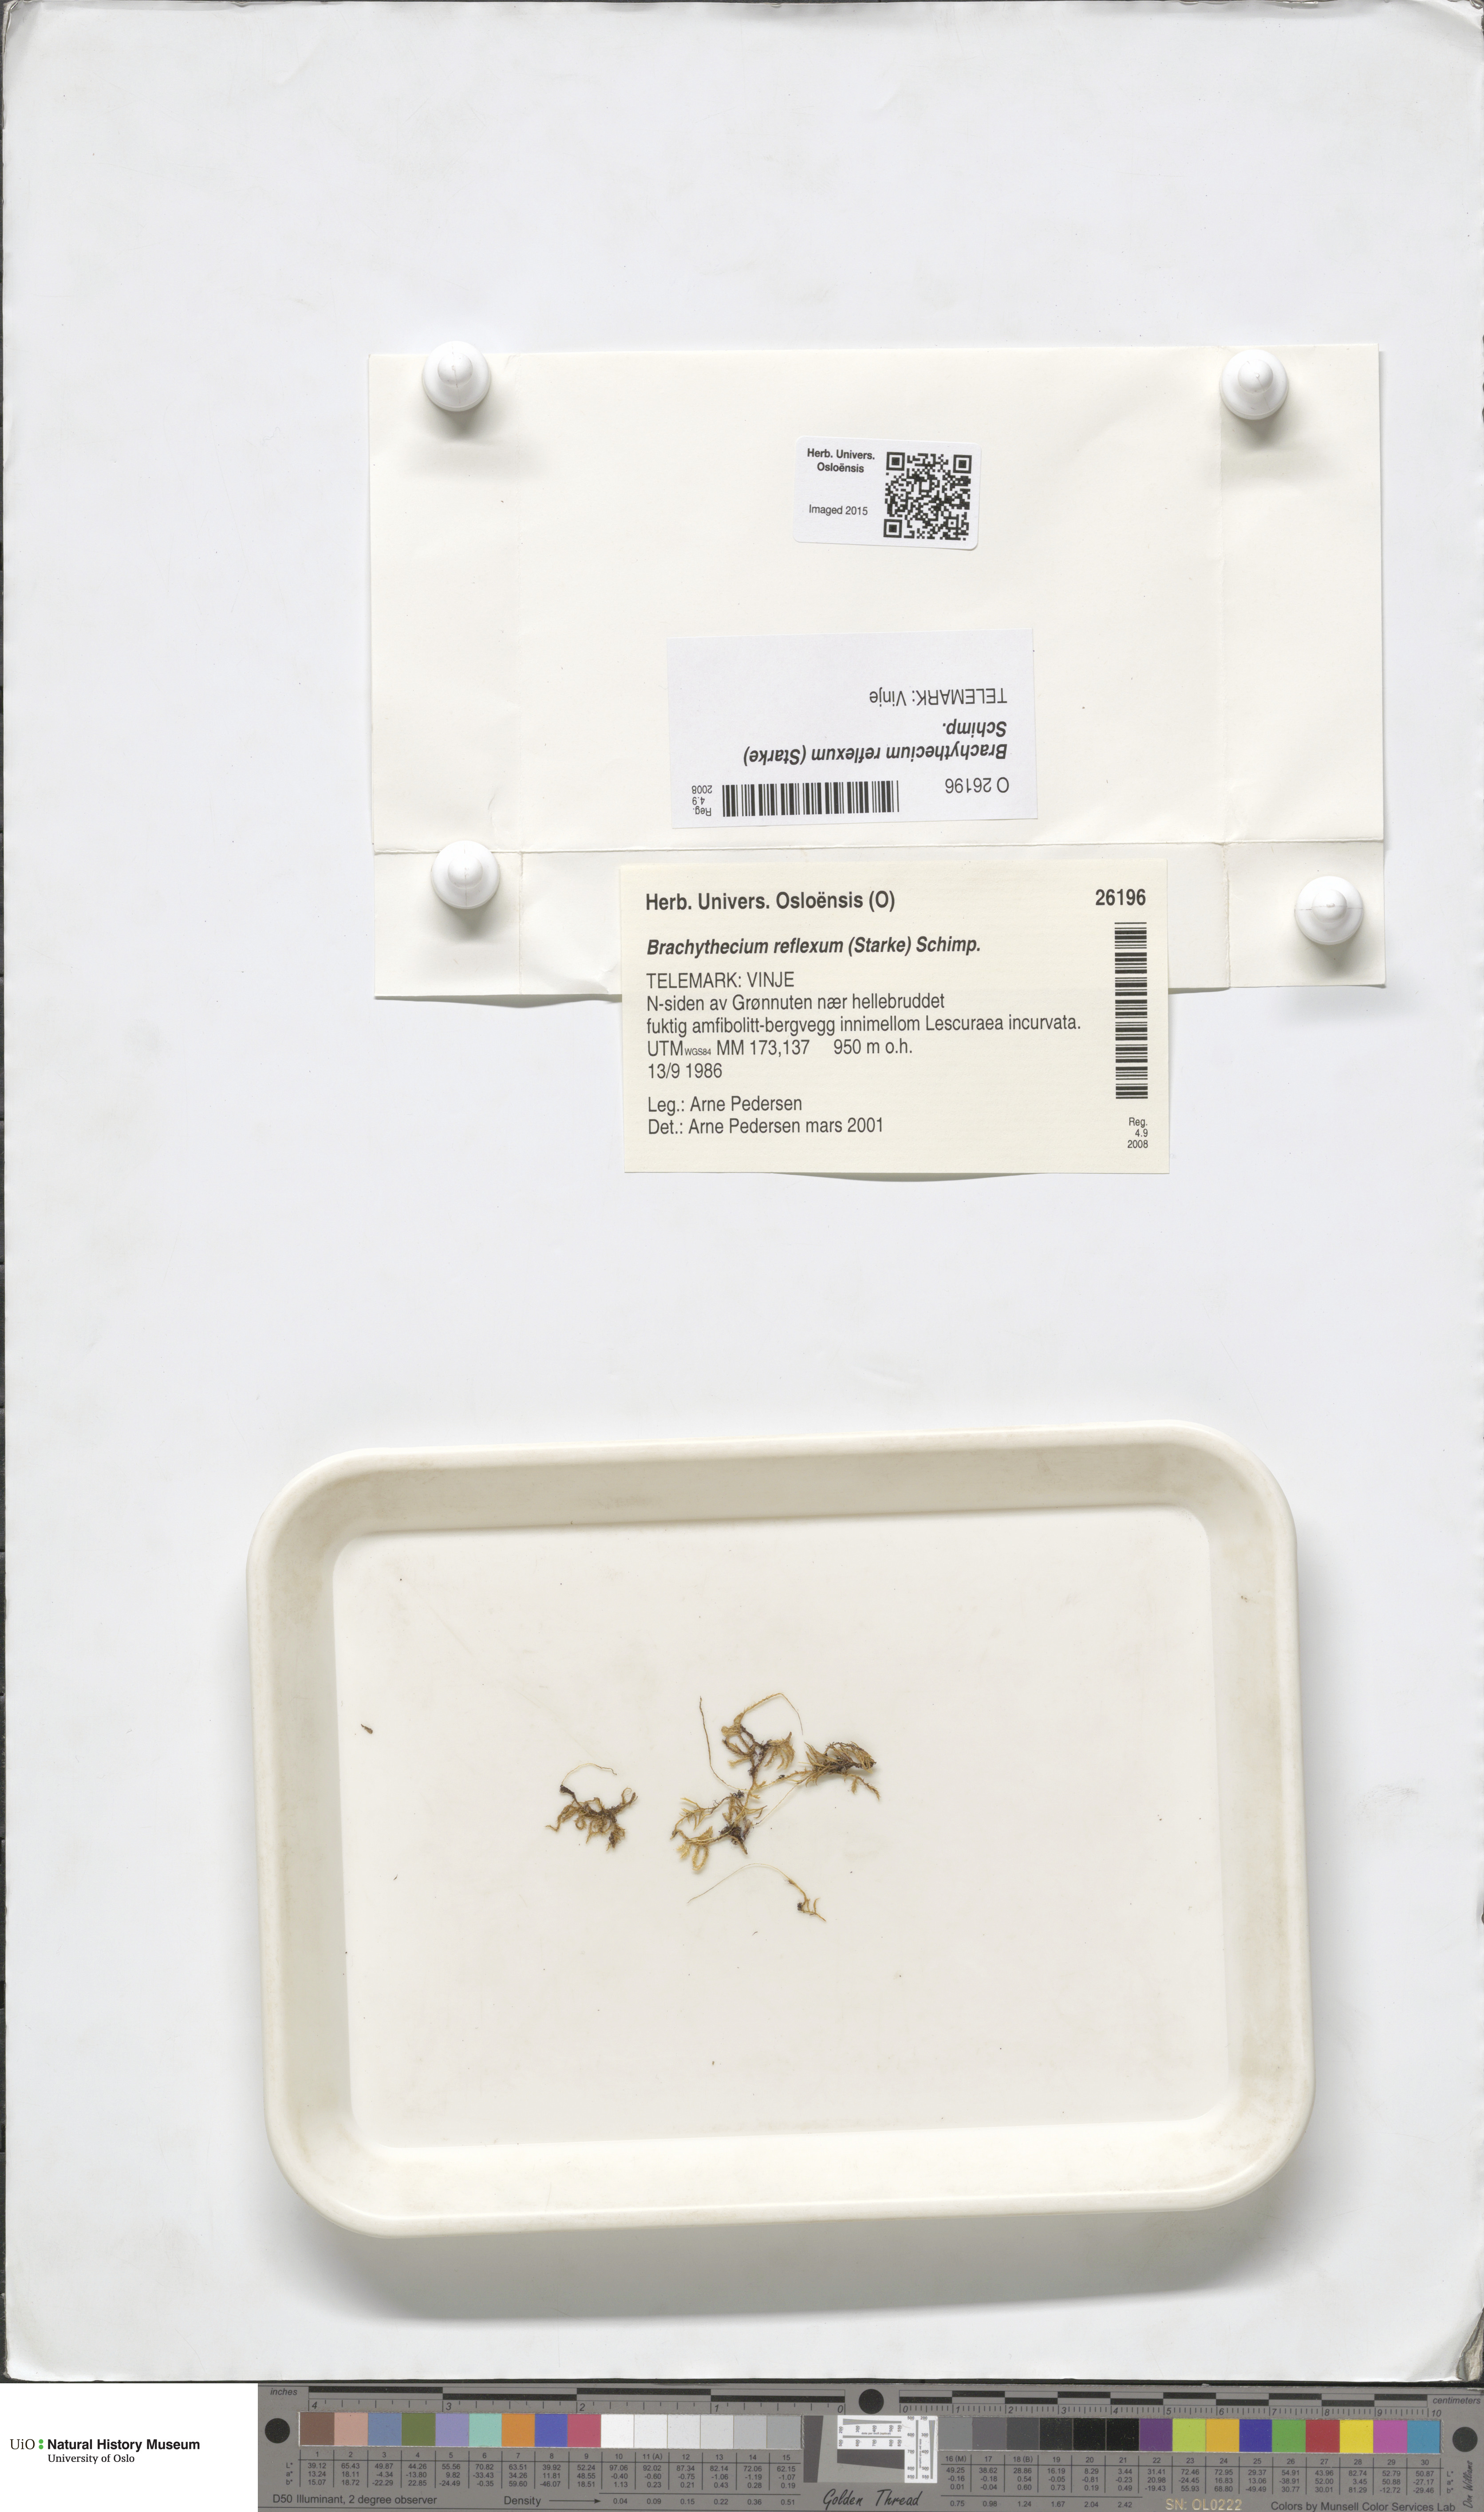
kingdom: Plantae
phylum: Bryophyta
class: Bryopsida
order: Hypnales
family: Brachytheciaceae
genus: Sciuro-hypnum
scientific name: Sciuro-hypnum reflexum
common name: Reflexed feather-moss
